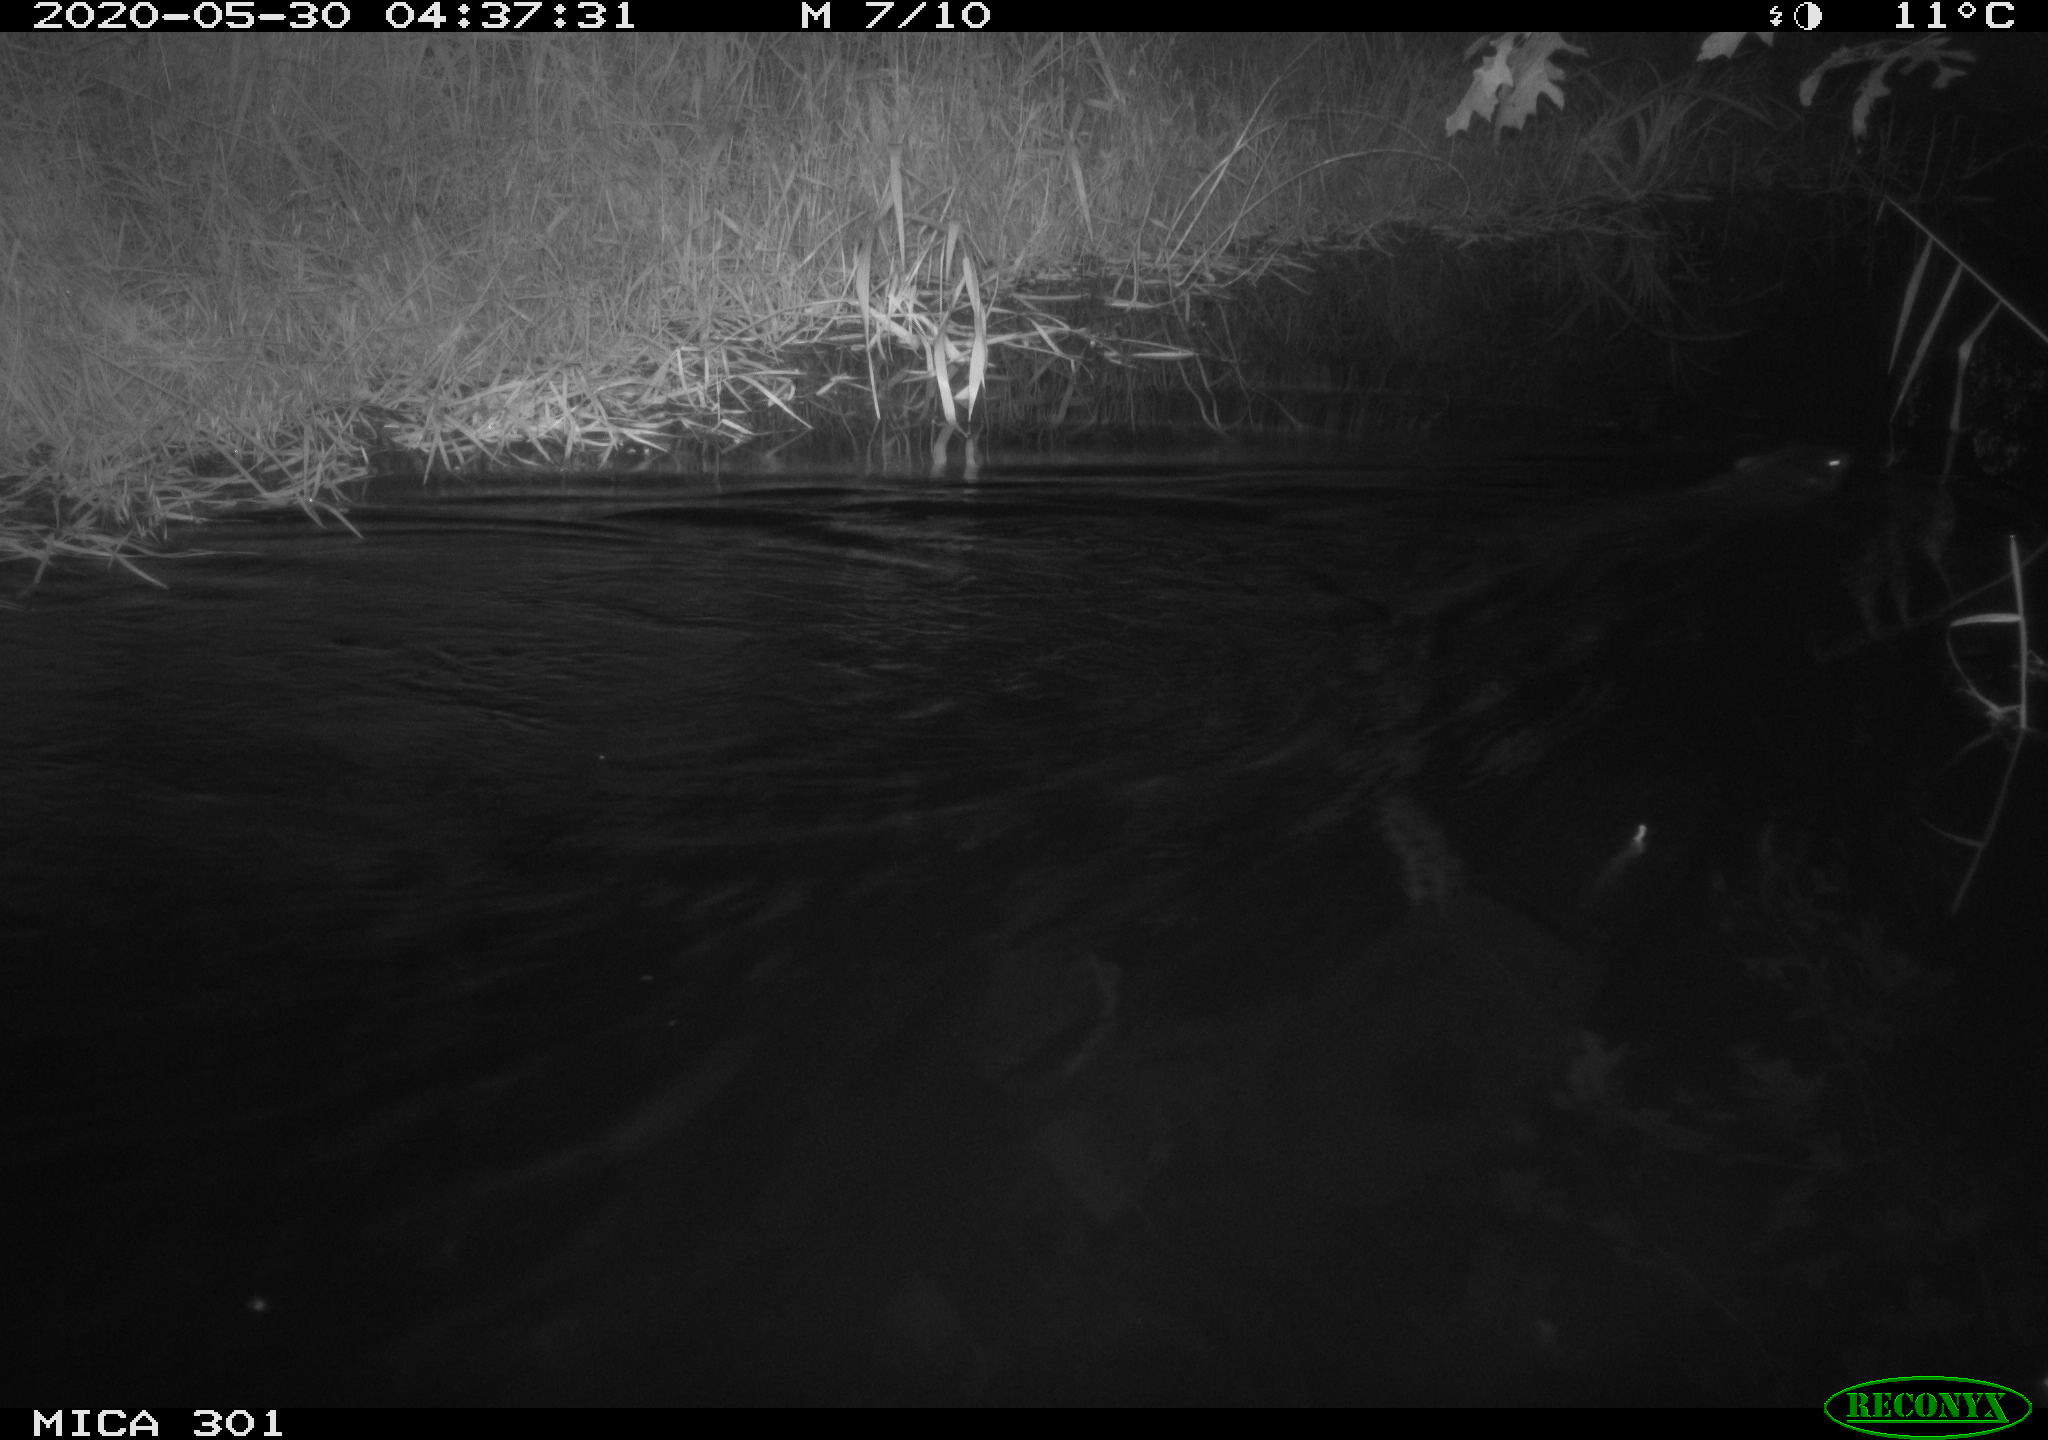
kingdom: Animalia
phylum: Chordata
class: Mammalia
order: Rodentia
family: Castoridae
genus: Castor
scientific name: Castor fiber
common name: Eurasian beaver
